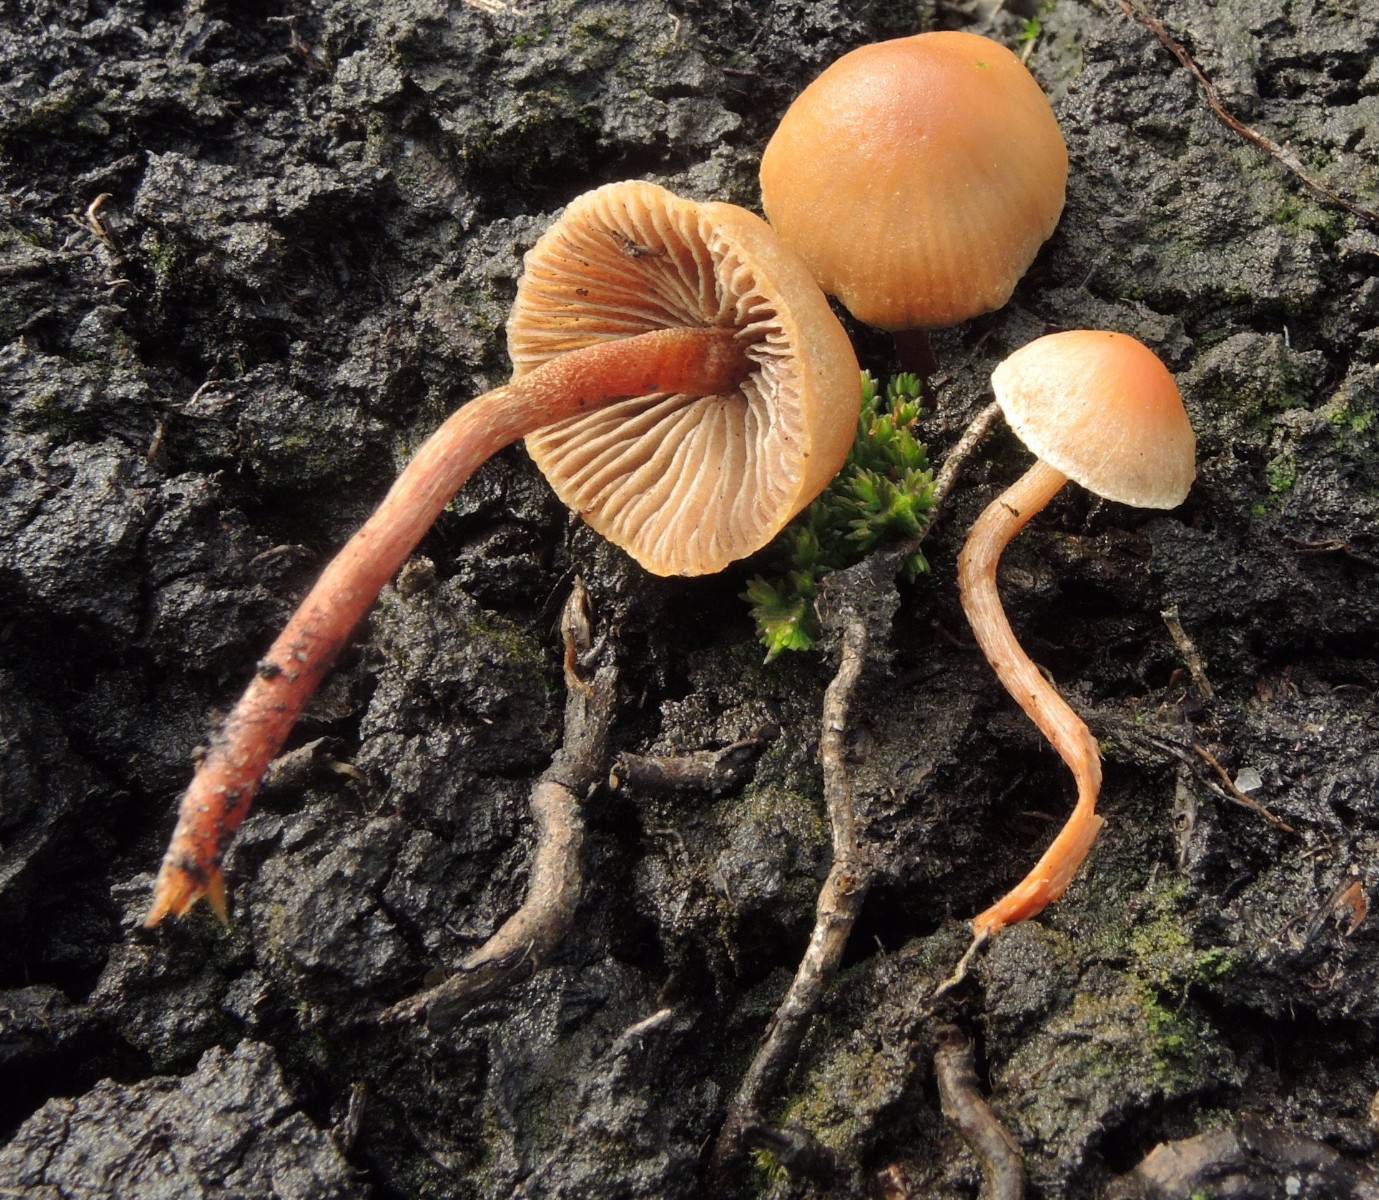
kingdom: Fungi
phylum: Basidiomycota
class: Agaricomycetes
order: Agaricales
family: Strophariaceae
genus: Bogbodia
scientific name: Bogbodia uda
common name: tørve-svovlhat
